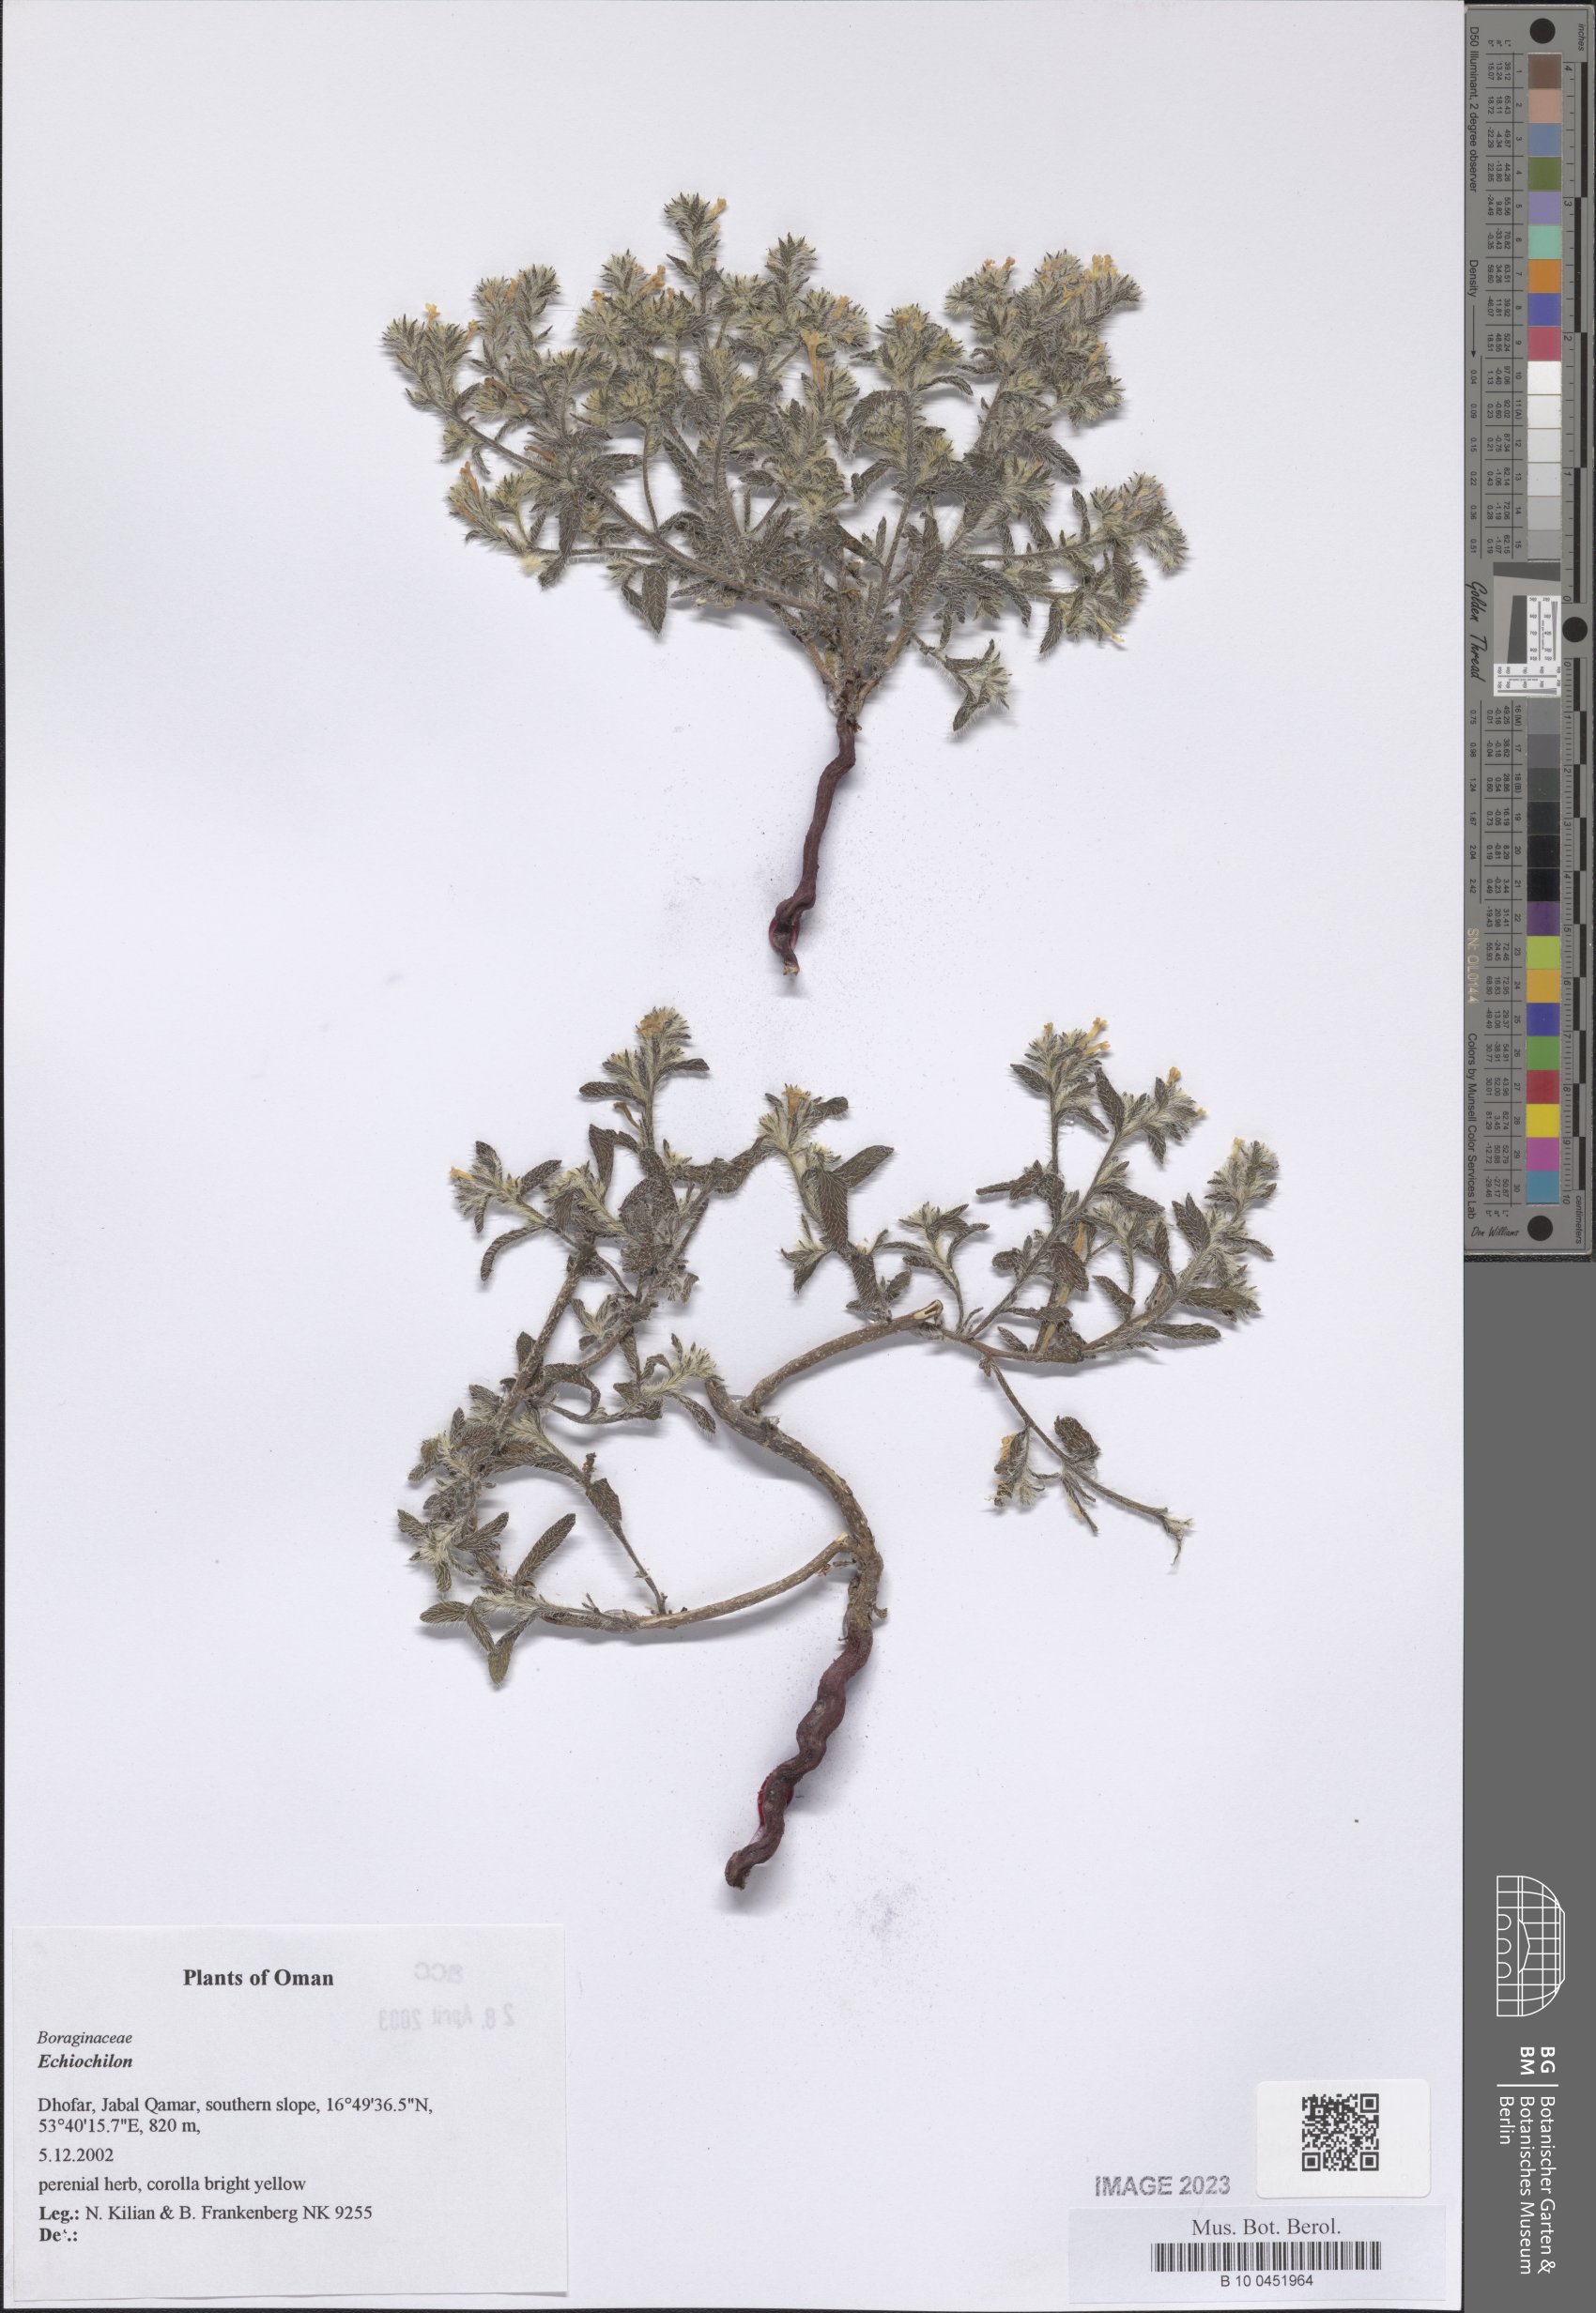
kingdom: Plantae
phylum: Tracheophyta
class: Magnoliopsida
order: Boraginales
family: Boraginaceae
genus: Echiochilon
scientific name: Echiochilon
